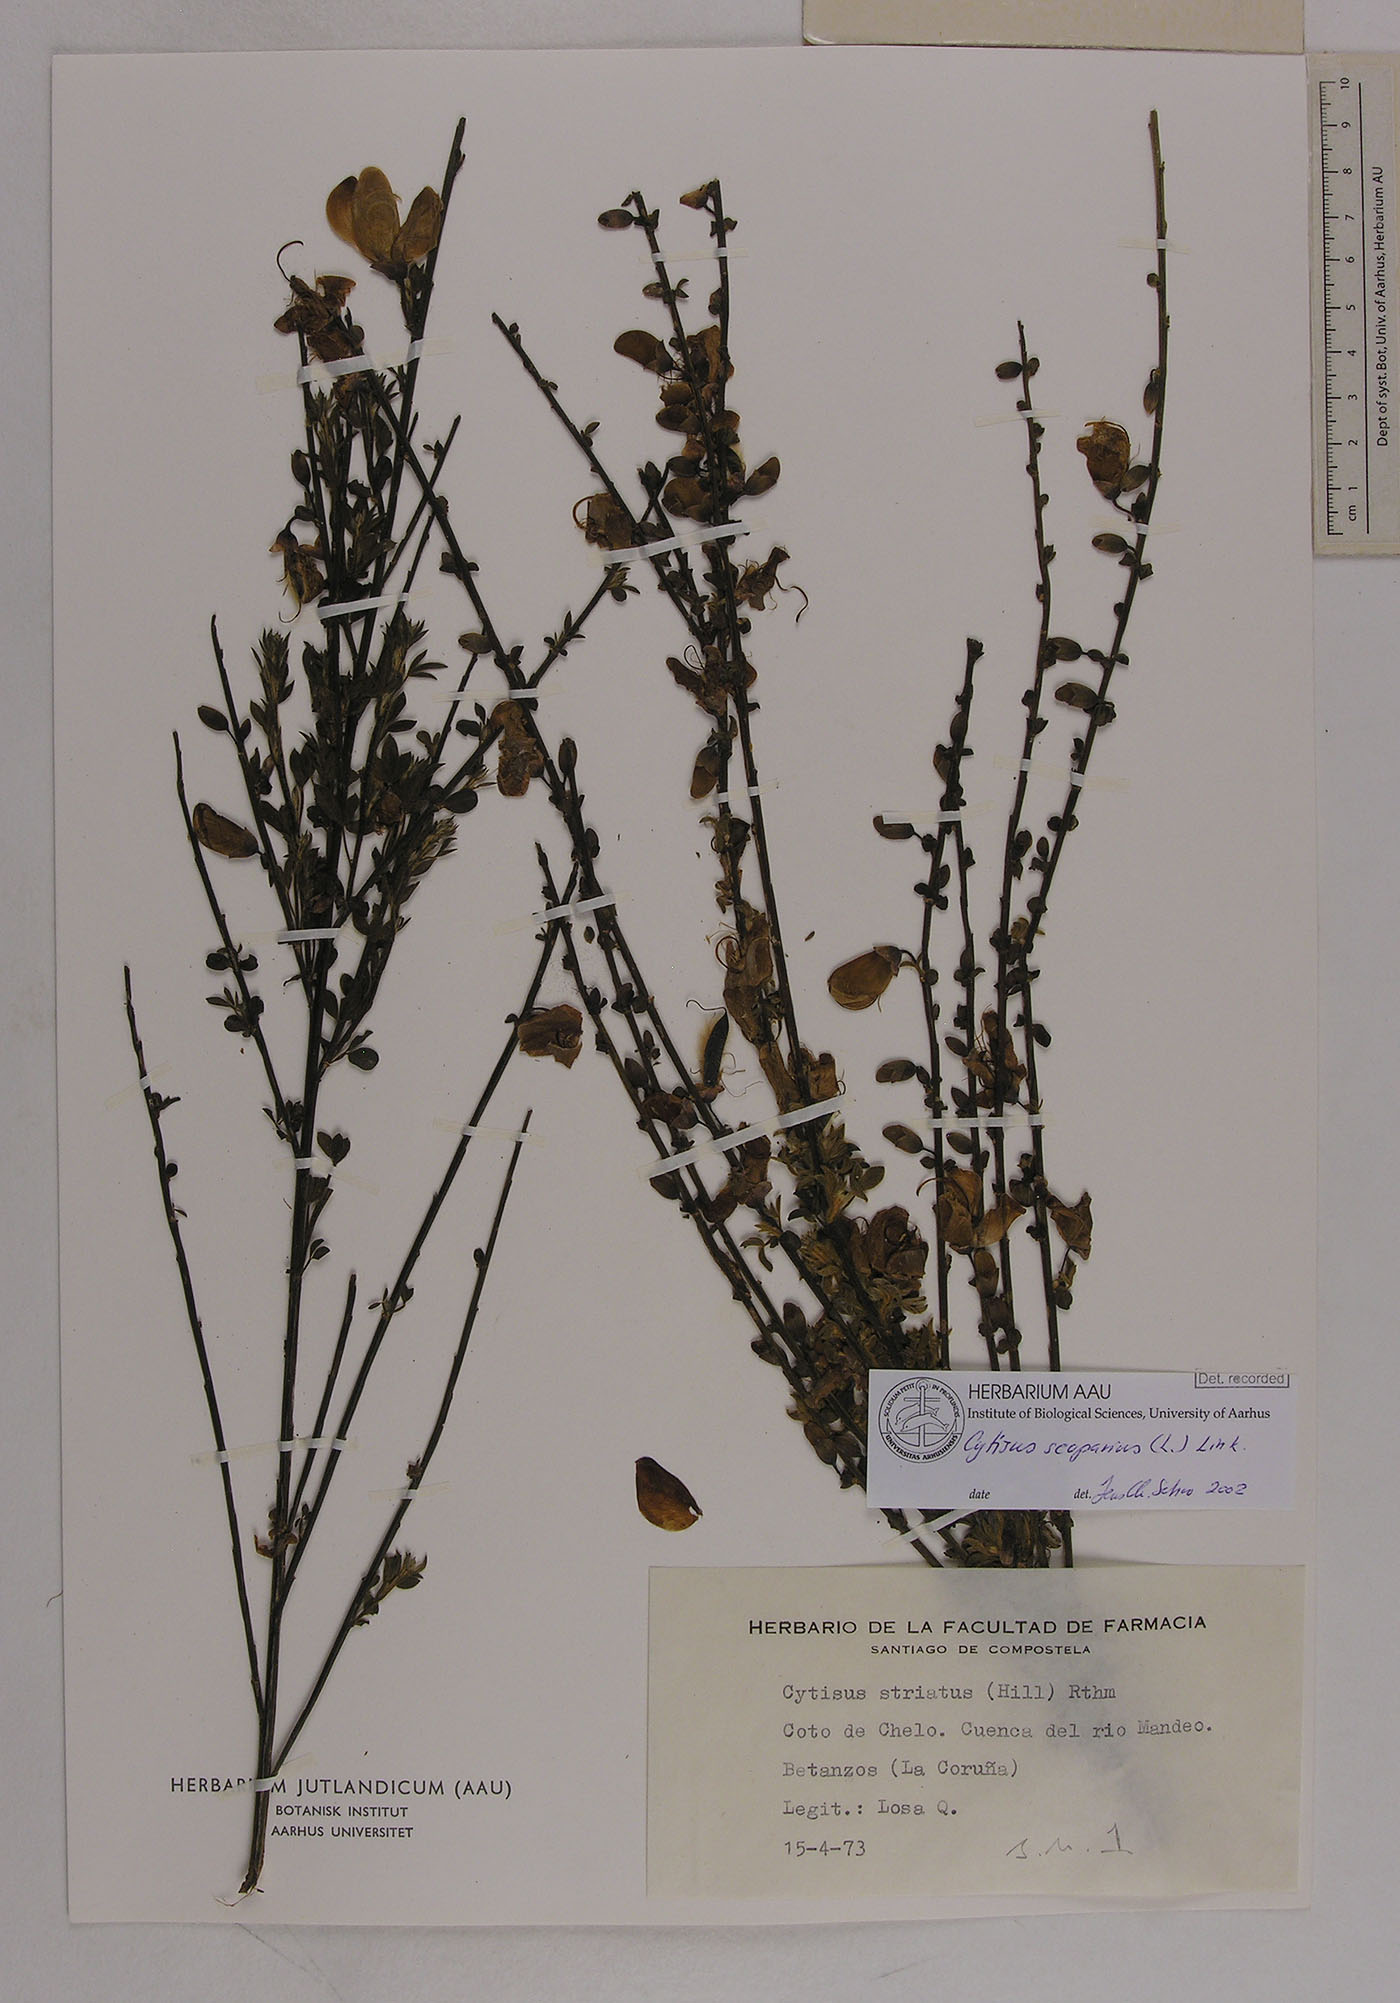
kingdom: Plantae
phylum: Tracheophyta
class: Magnoliopsida
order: Fabales
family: Fabaceae
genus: Cytisus
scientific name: Cytisus scoparius
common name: Scotch broom
